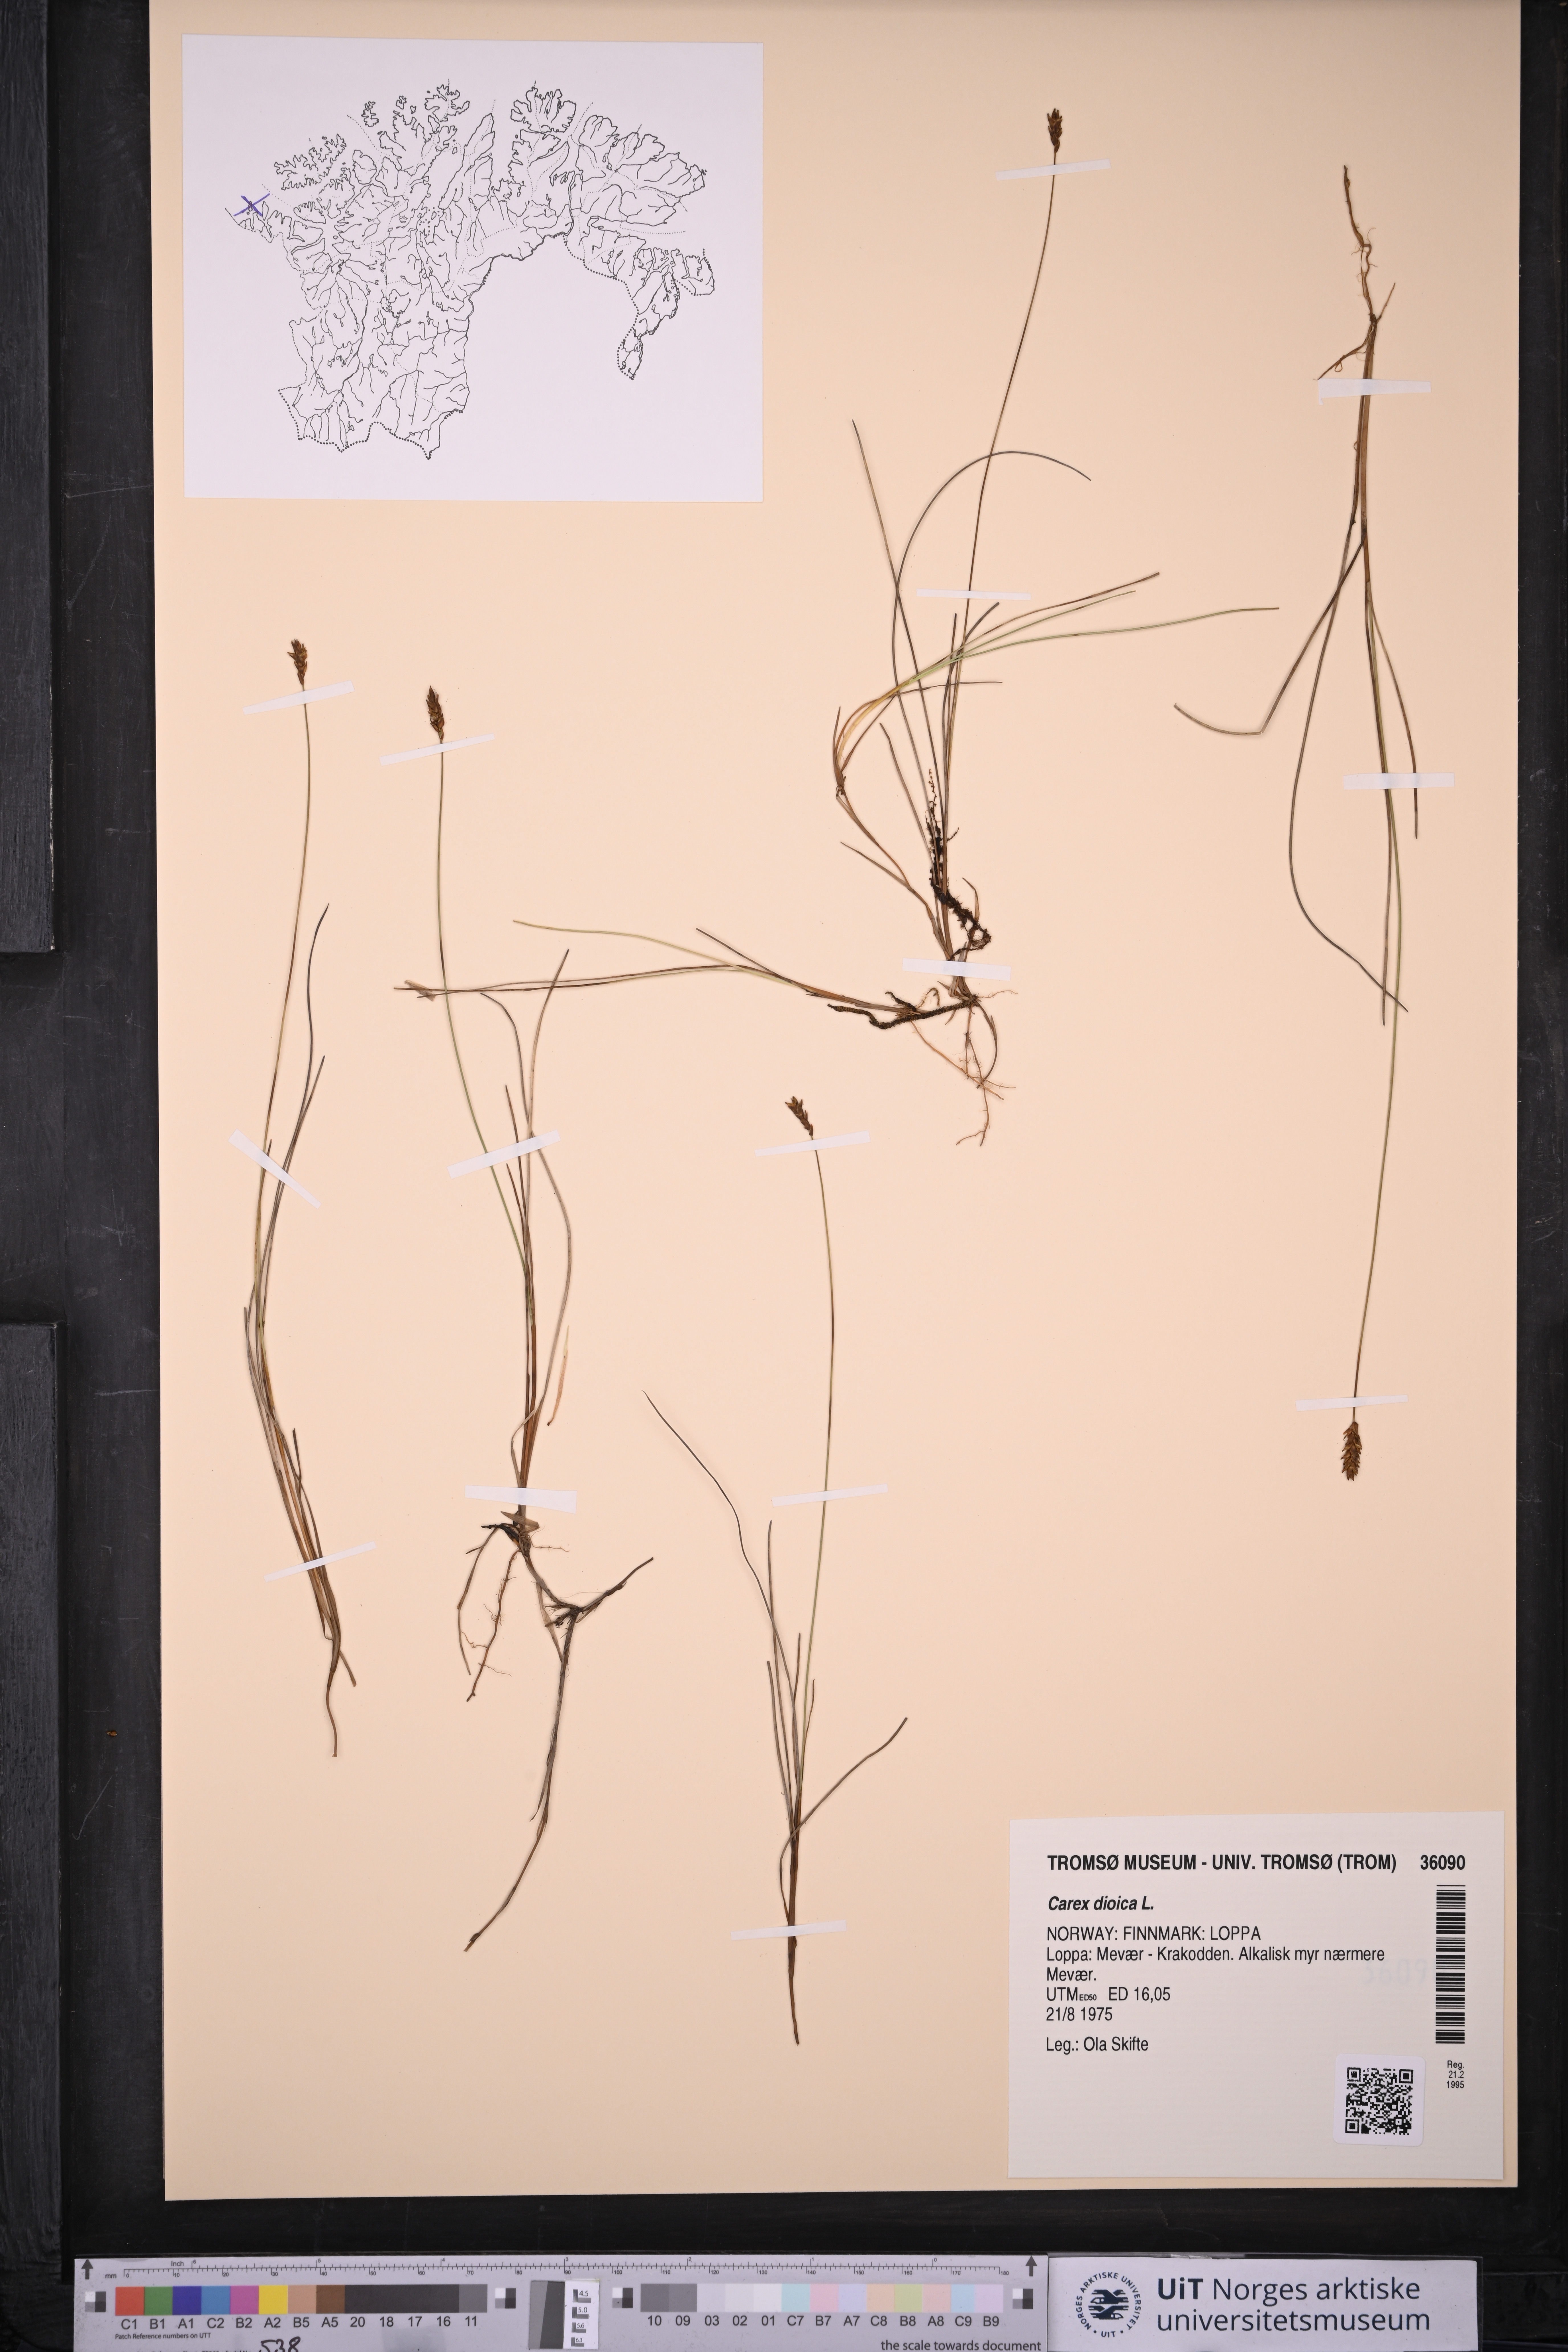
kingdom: Plantae
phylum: Tracheophyta
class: Liliopsida
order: Poales
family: Cyperaceae
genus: Carex
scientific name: Carex dioica
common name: Dioecious sedge
